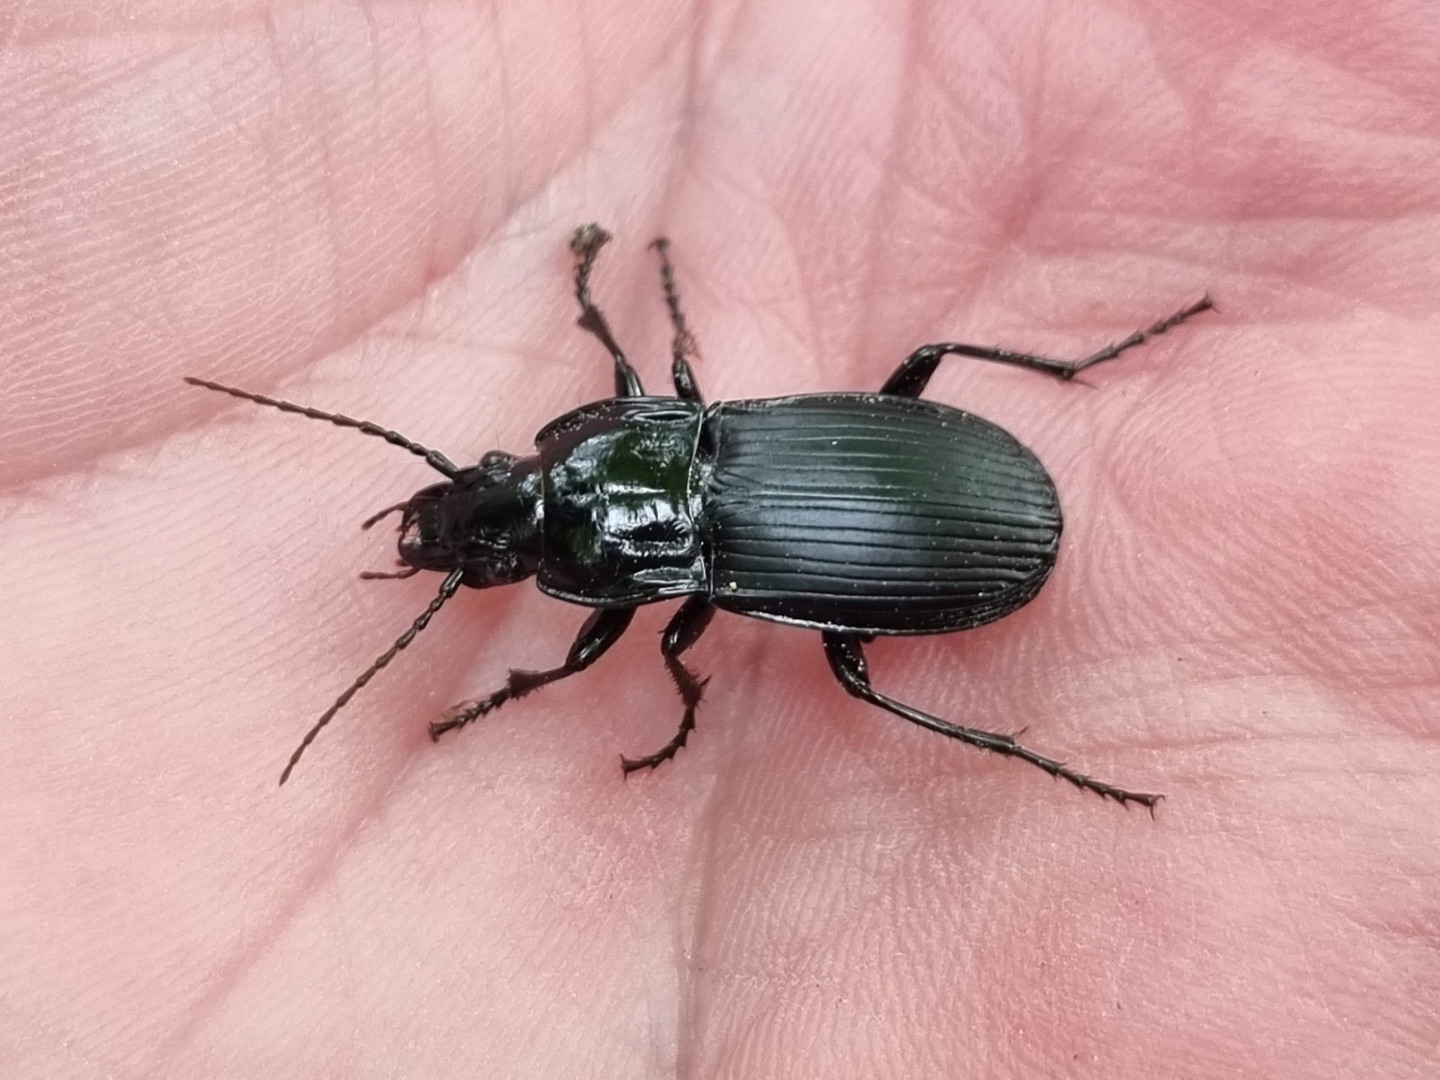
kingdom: Animalia
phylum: Arthropoda
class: Insecta
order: Coleoptera
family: Carabidae
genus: Abax
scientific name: Abax parallelepipedus
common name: Bred muldløber
